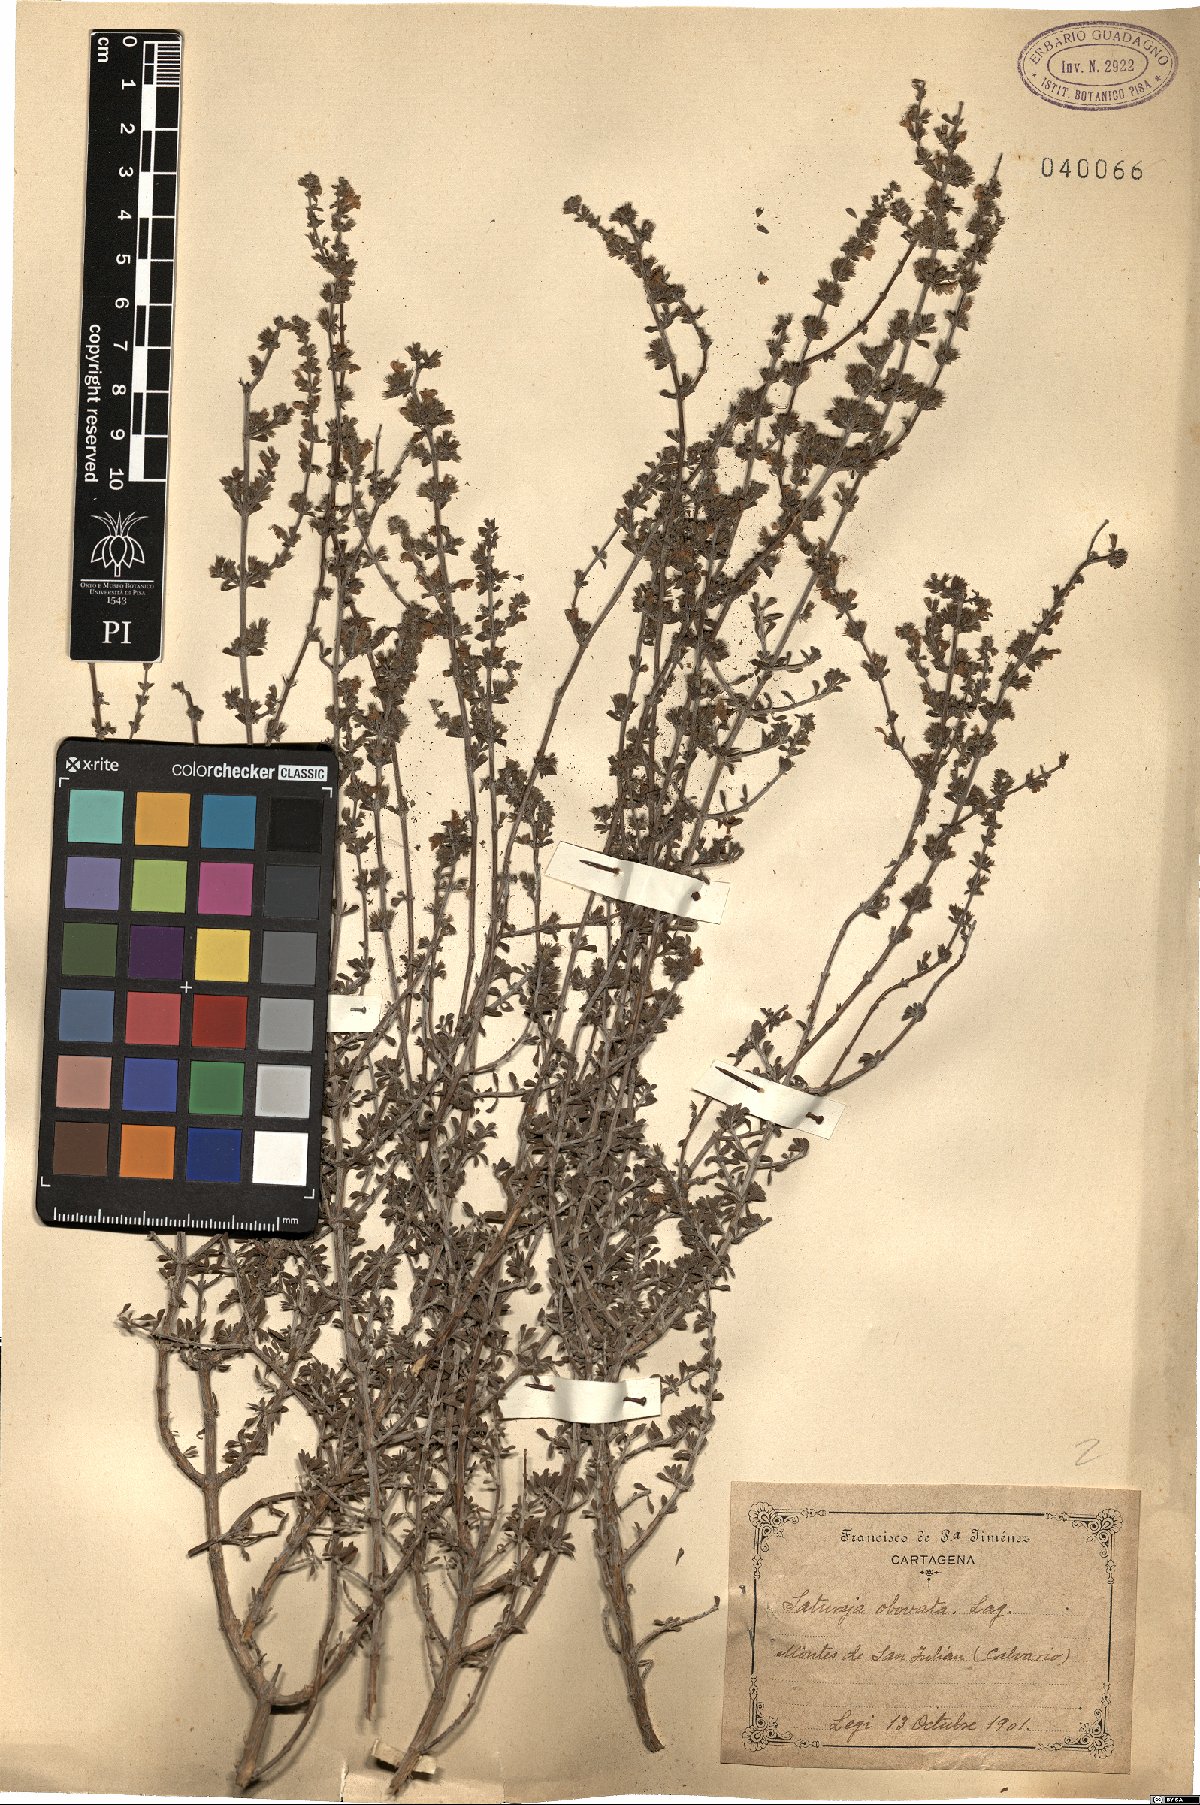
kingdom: Plantae
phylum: Tracheophyta
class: Magnoliopsida
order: Lamiales
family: Lamiaceae
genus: Satureja
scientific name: Satureja cuneifolia
